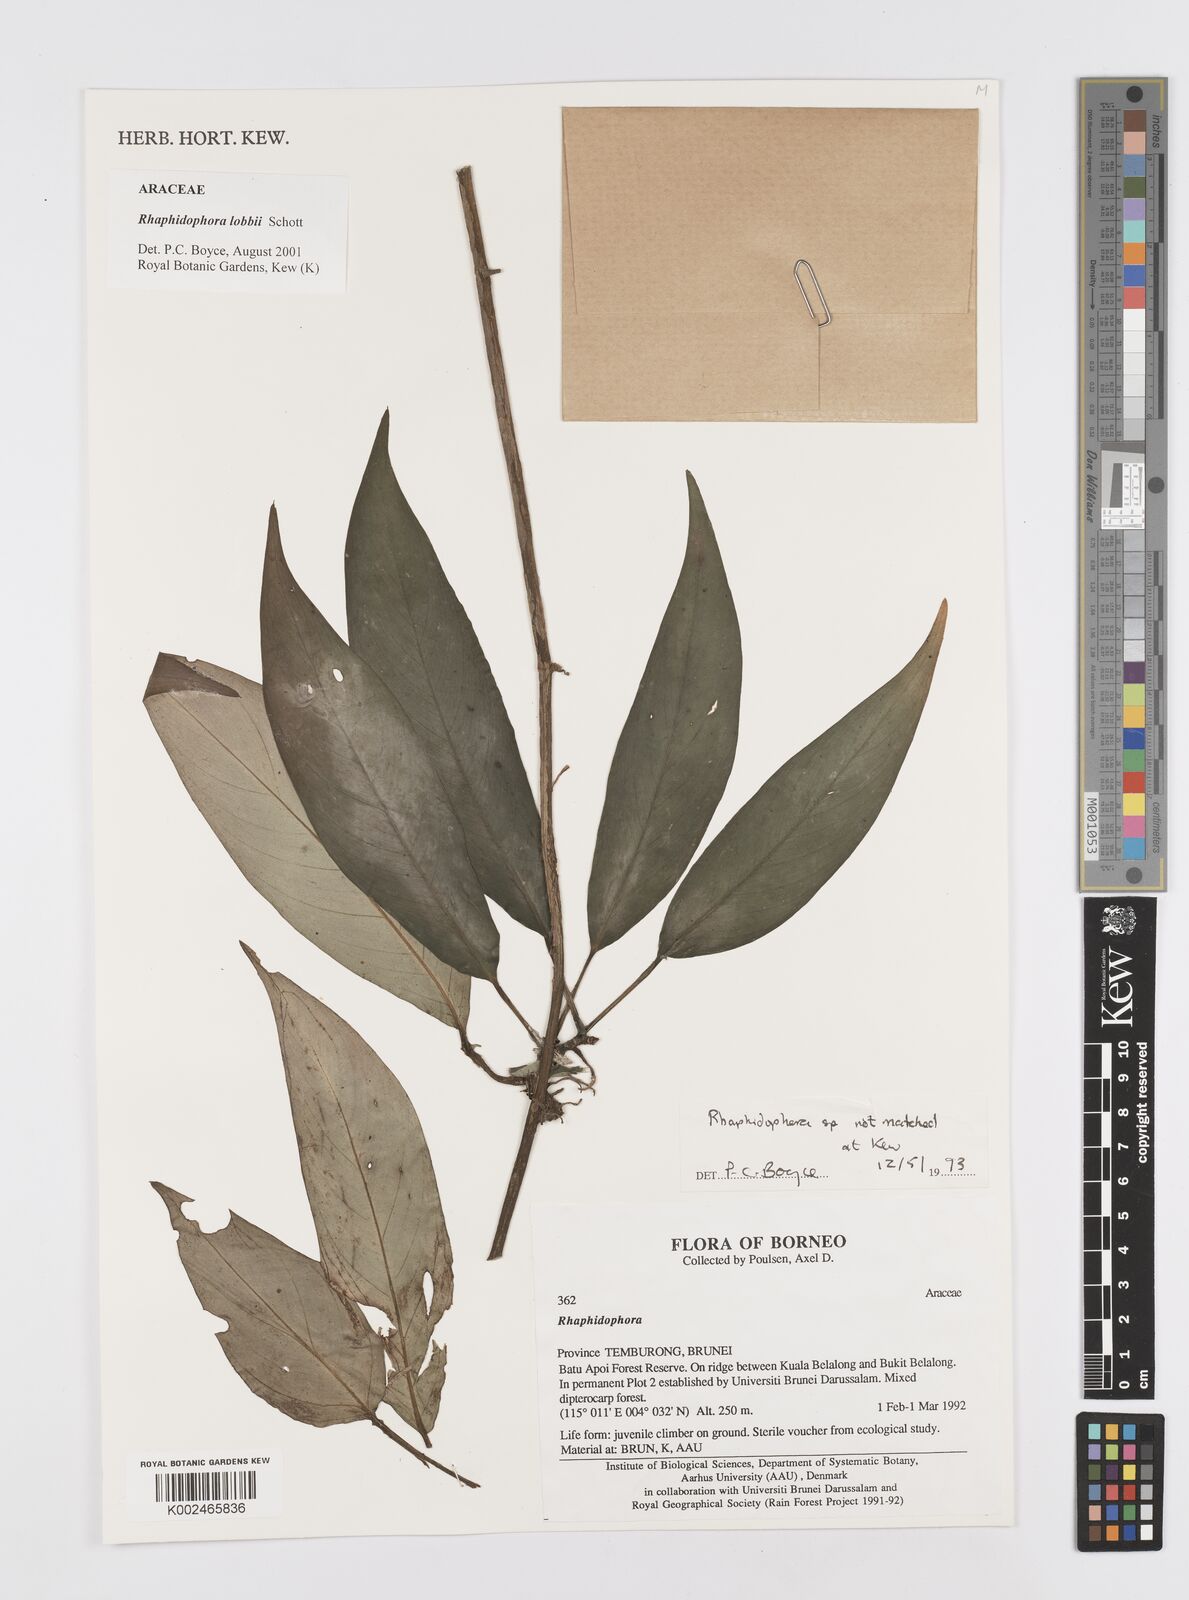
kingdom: Plantae
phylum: Tracheophyta
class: Liliopsida
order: Alismatales
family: Araceae
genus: Rhaphidophora
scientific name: Rhaphidophora lobbii
